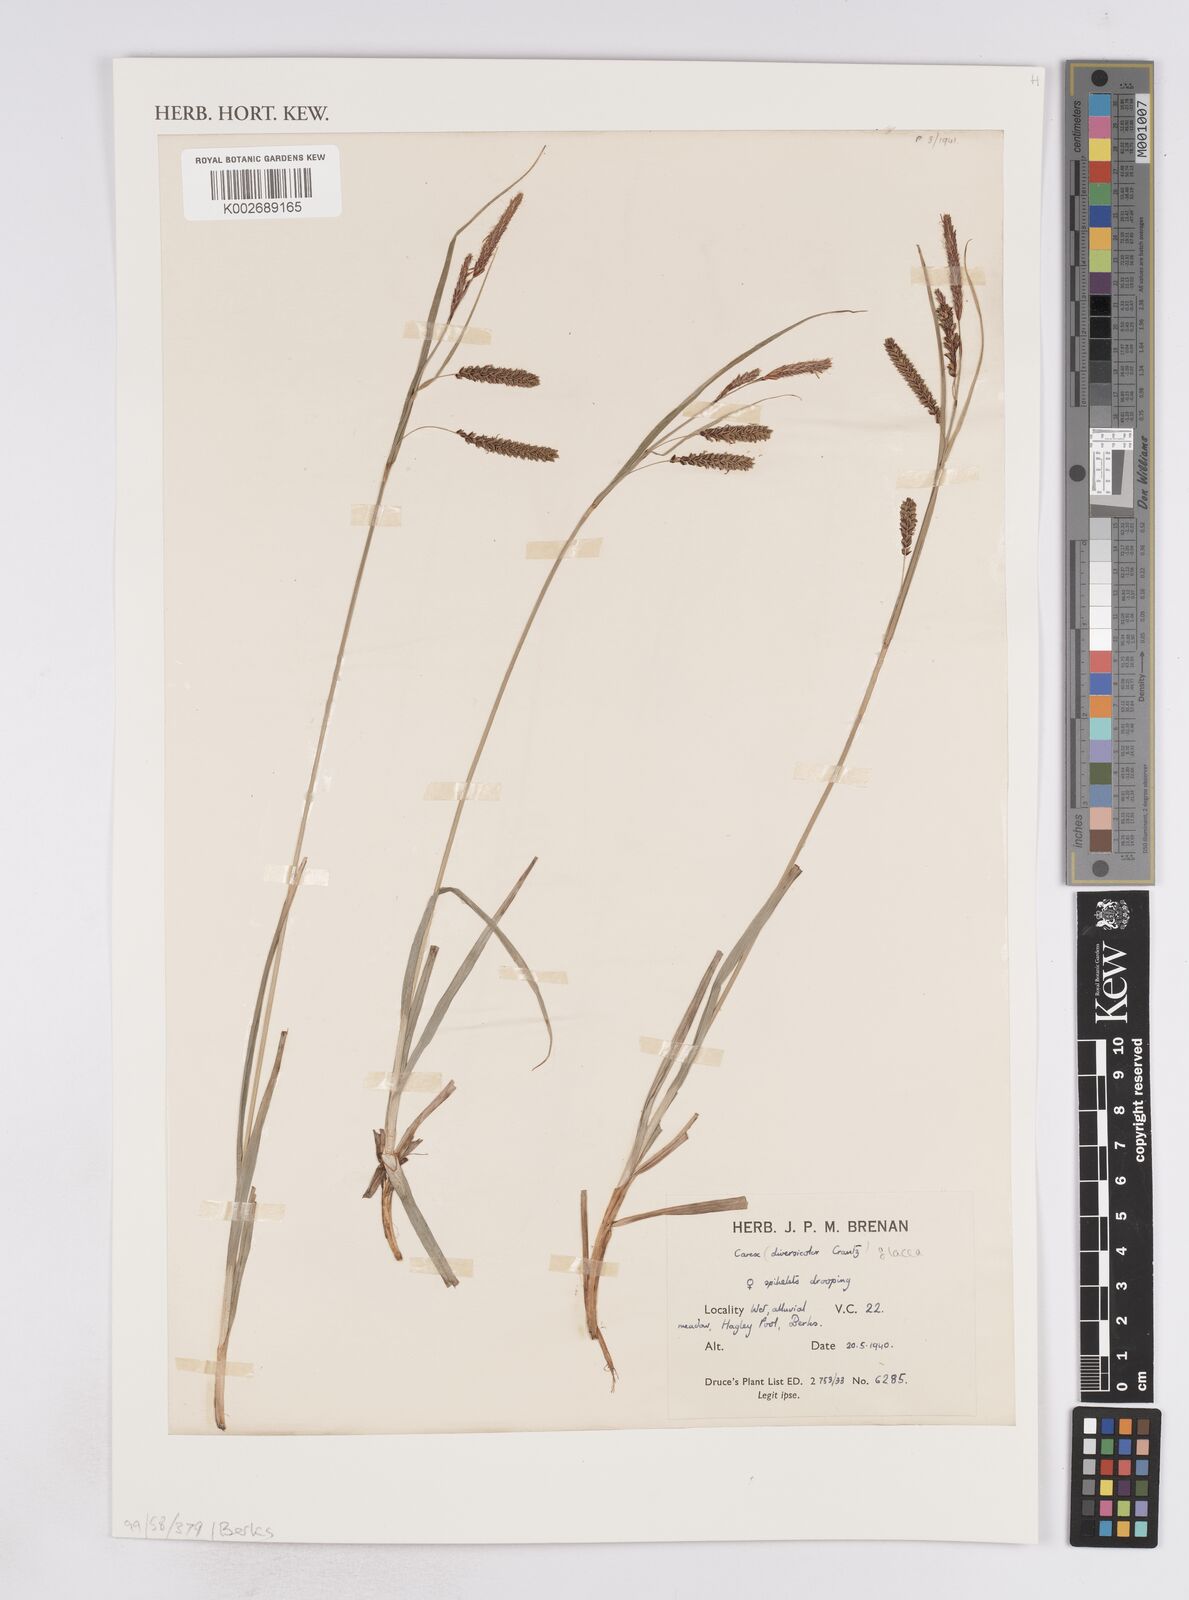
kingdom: Plantae
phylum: Tracheophyta
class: Liliopsida
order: Poales
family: Cyperaceae
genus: Carex
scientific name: Carex flacca
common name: Glaucous sedge
